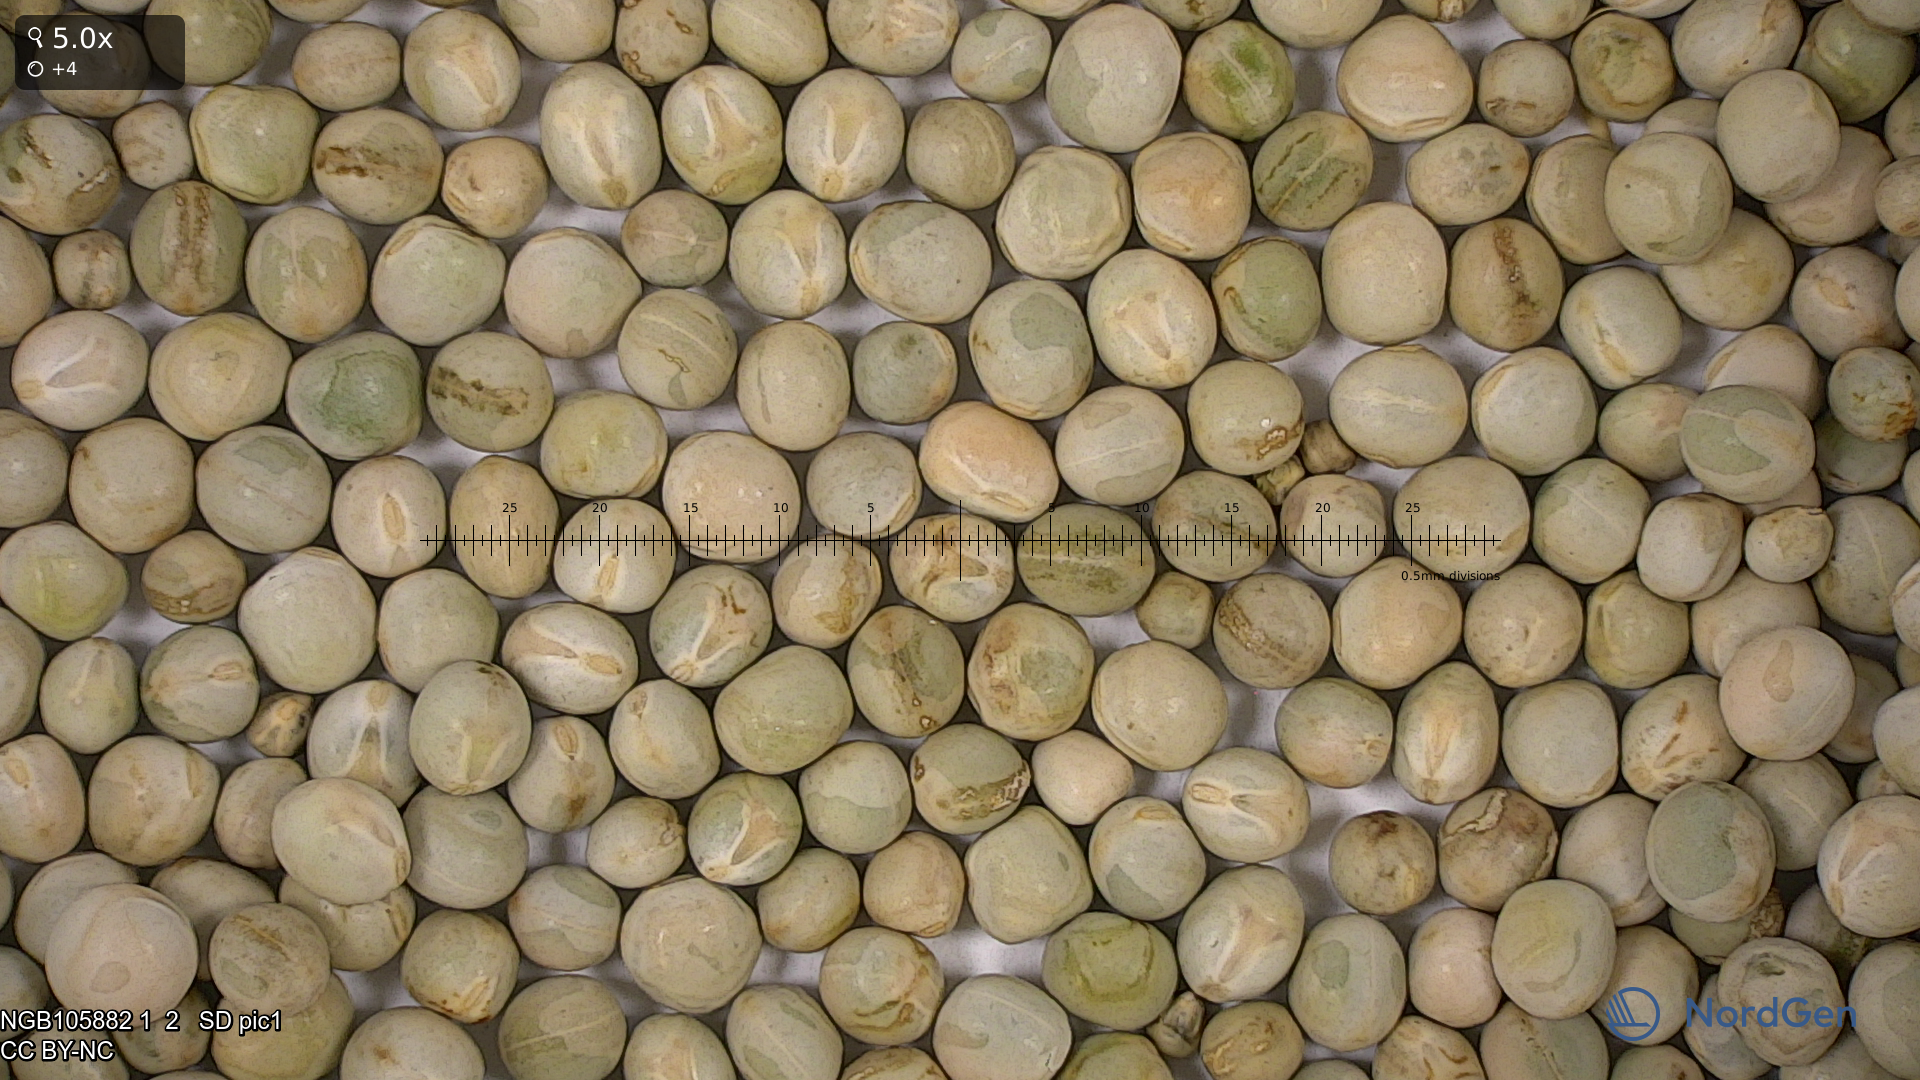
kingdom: Plantae
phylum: Tracheophyta
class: Magnoliopsida
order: Fabales
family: Fabaceae
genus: Lathyrus
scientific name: Lathyrus oleraceus
